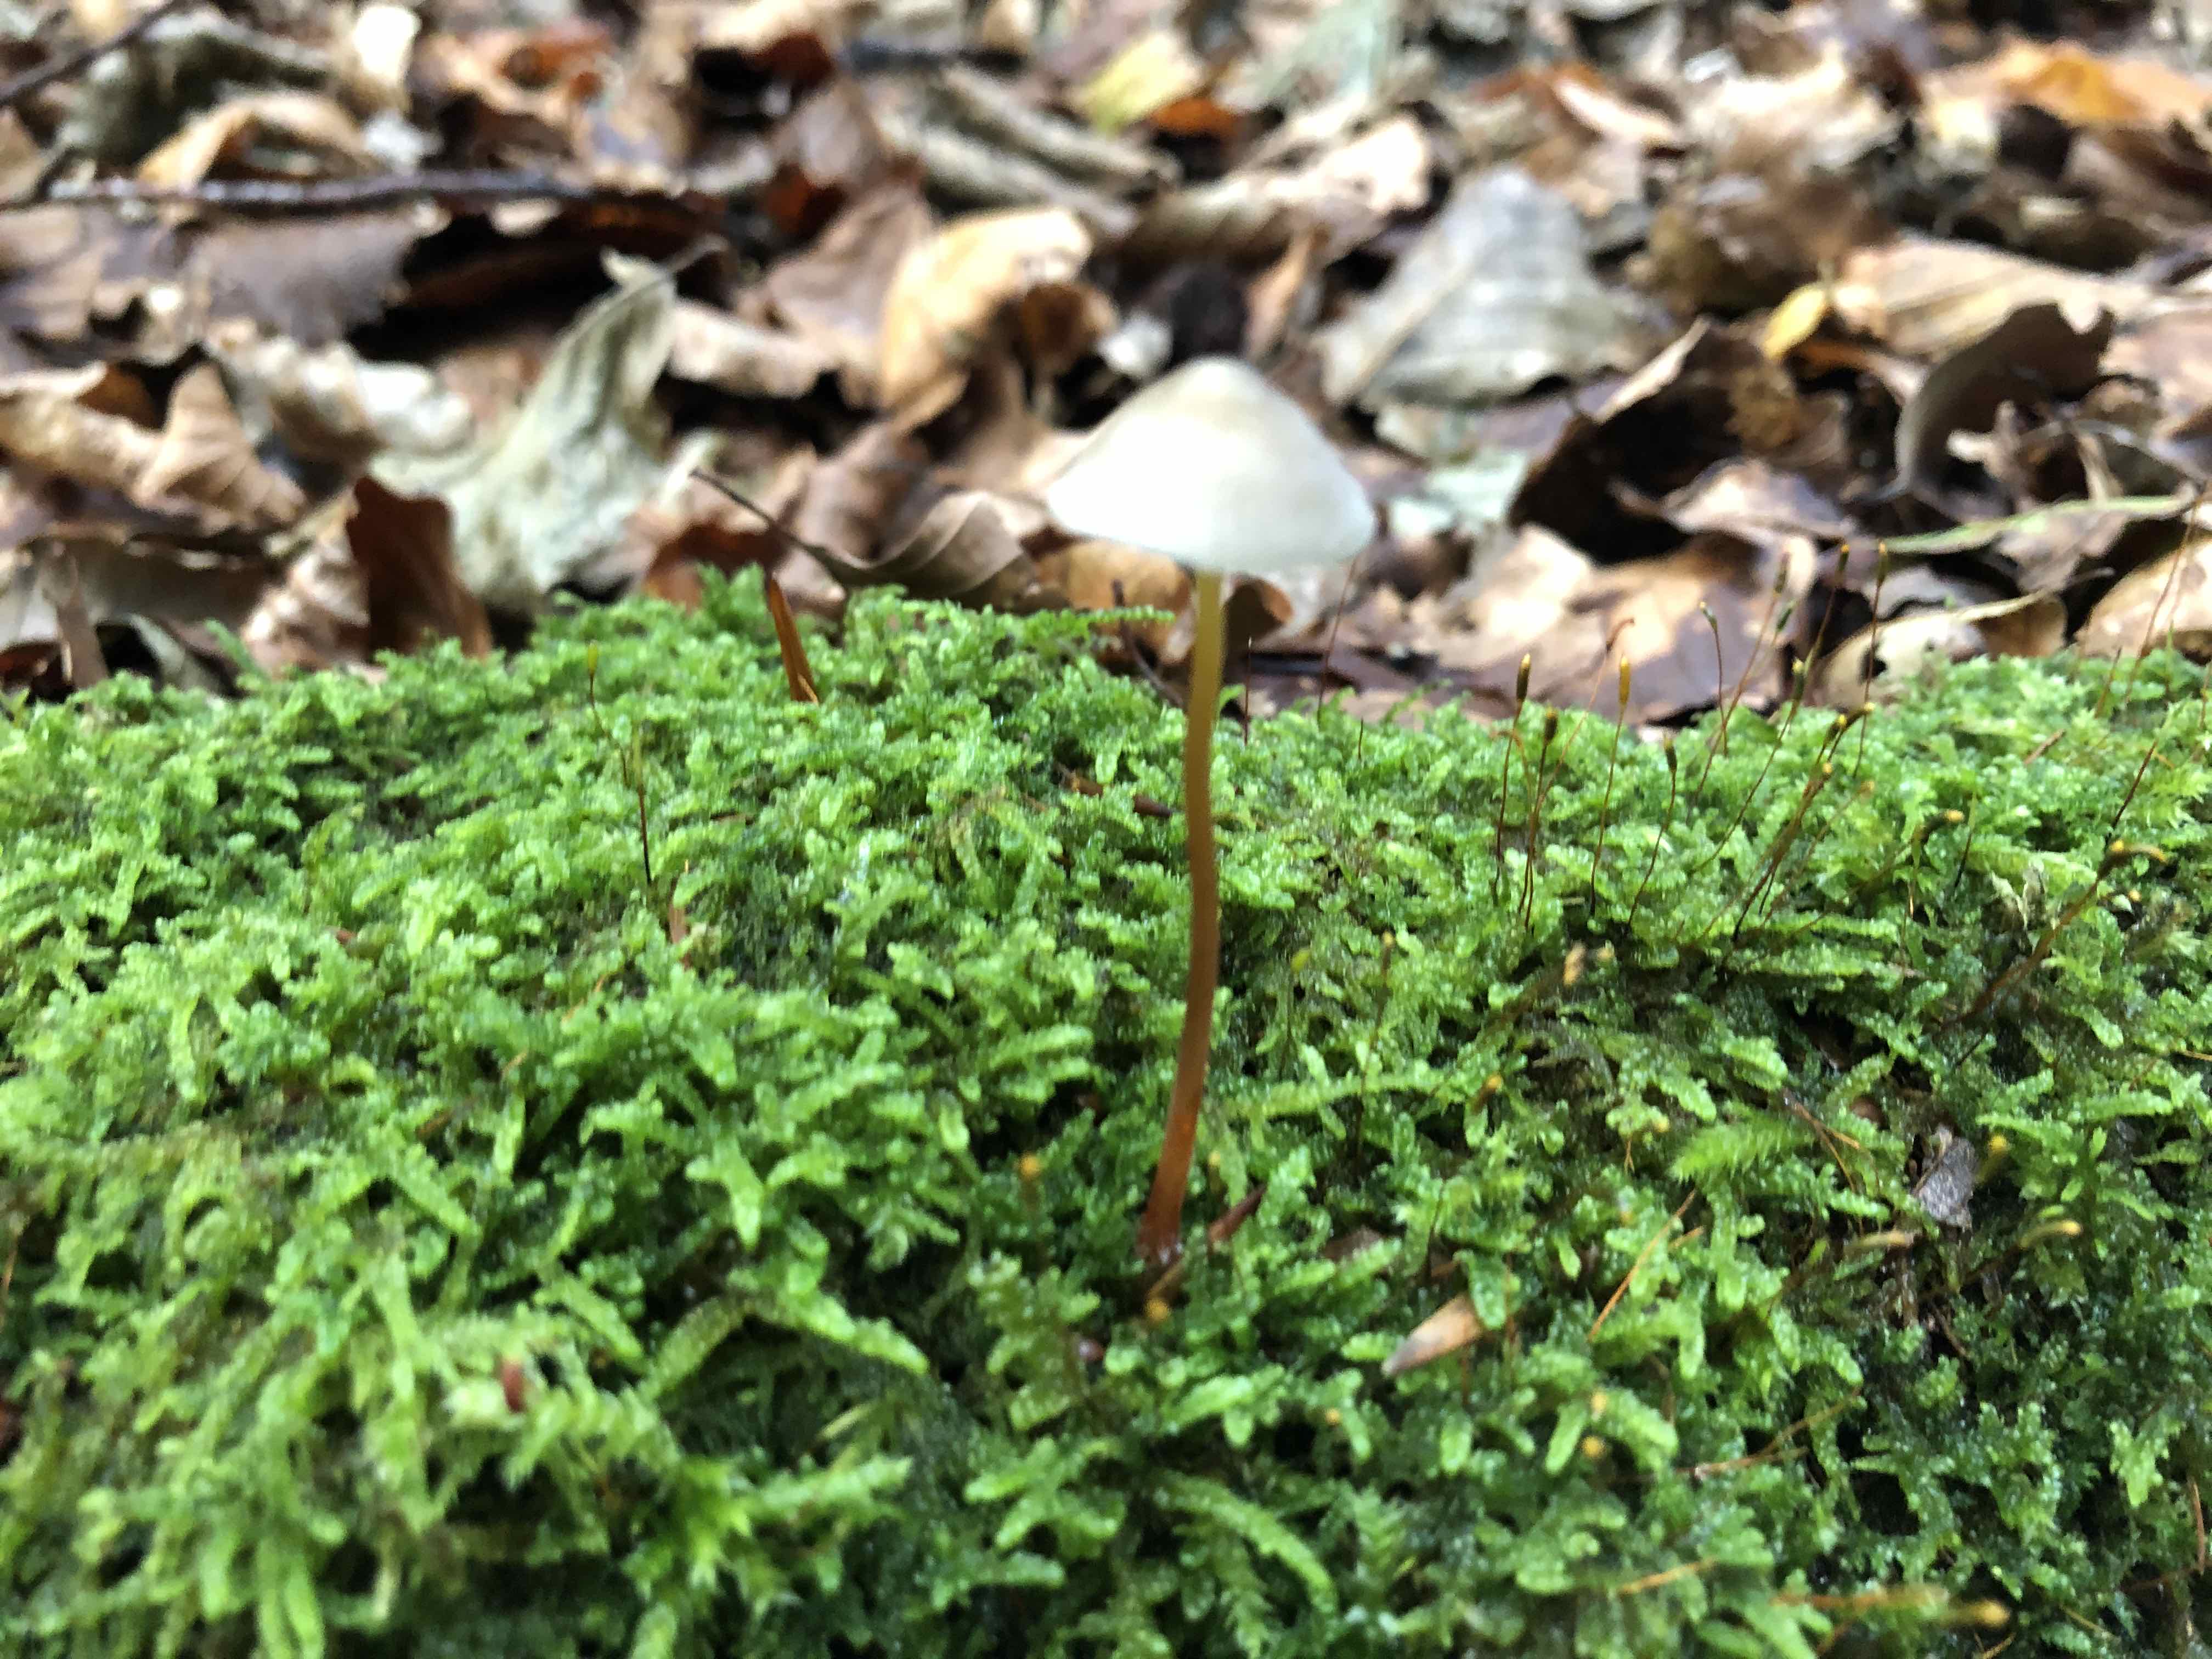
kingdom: Fungi
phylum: Basidiomycota
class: Agaricomycetes
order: Agaricales
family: Mycenaceae
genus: Mycena
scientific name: Mycena crocata
